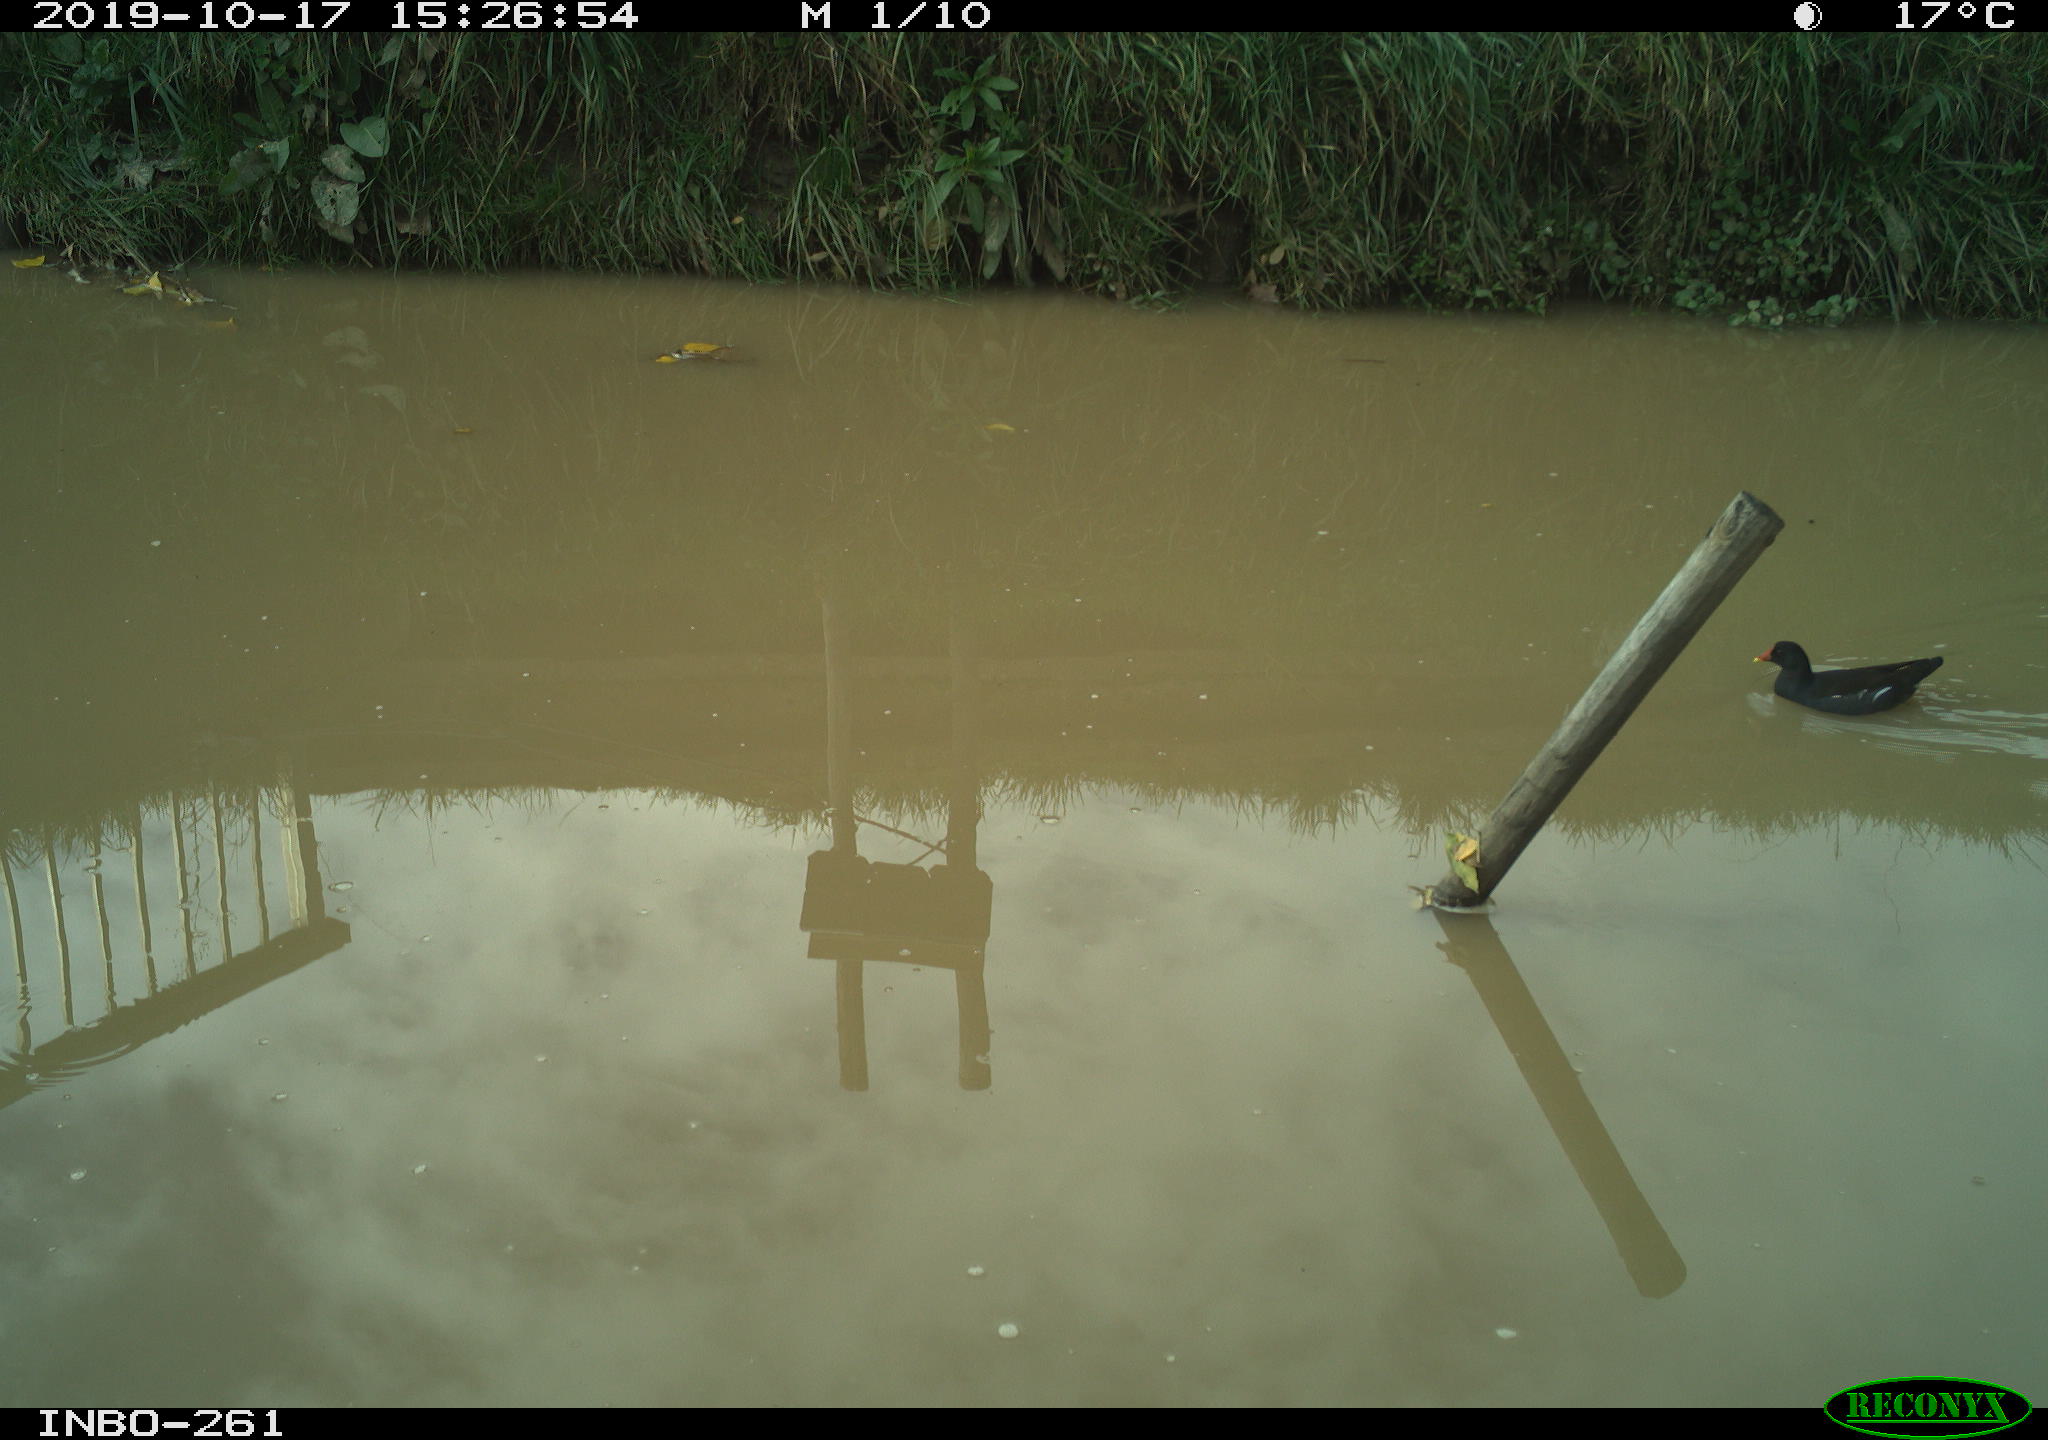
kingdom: Animalia
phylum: Chordata
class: Aves
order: Gruiformes
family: Rallidae
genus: Gallinula
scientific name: Gallinula chloropus
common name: Common moorhen
